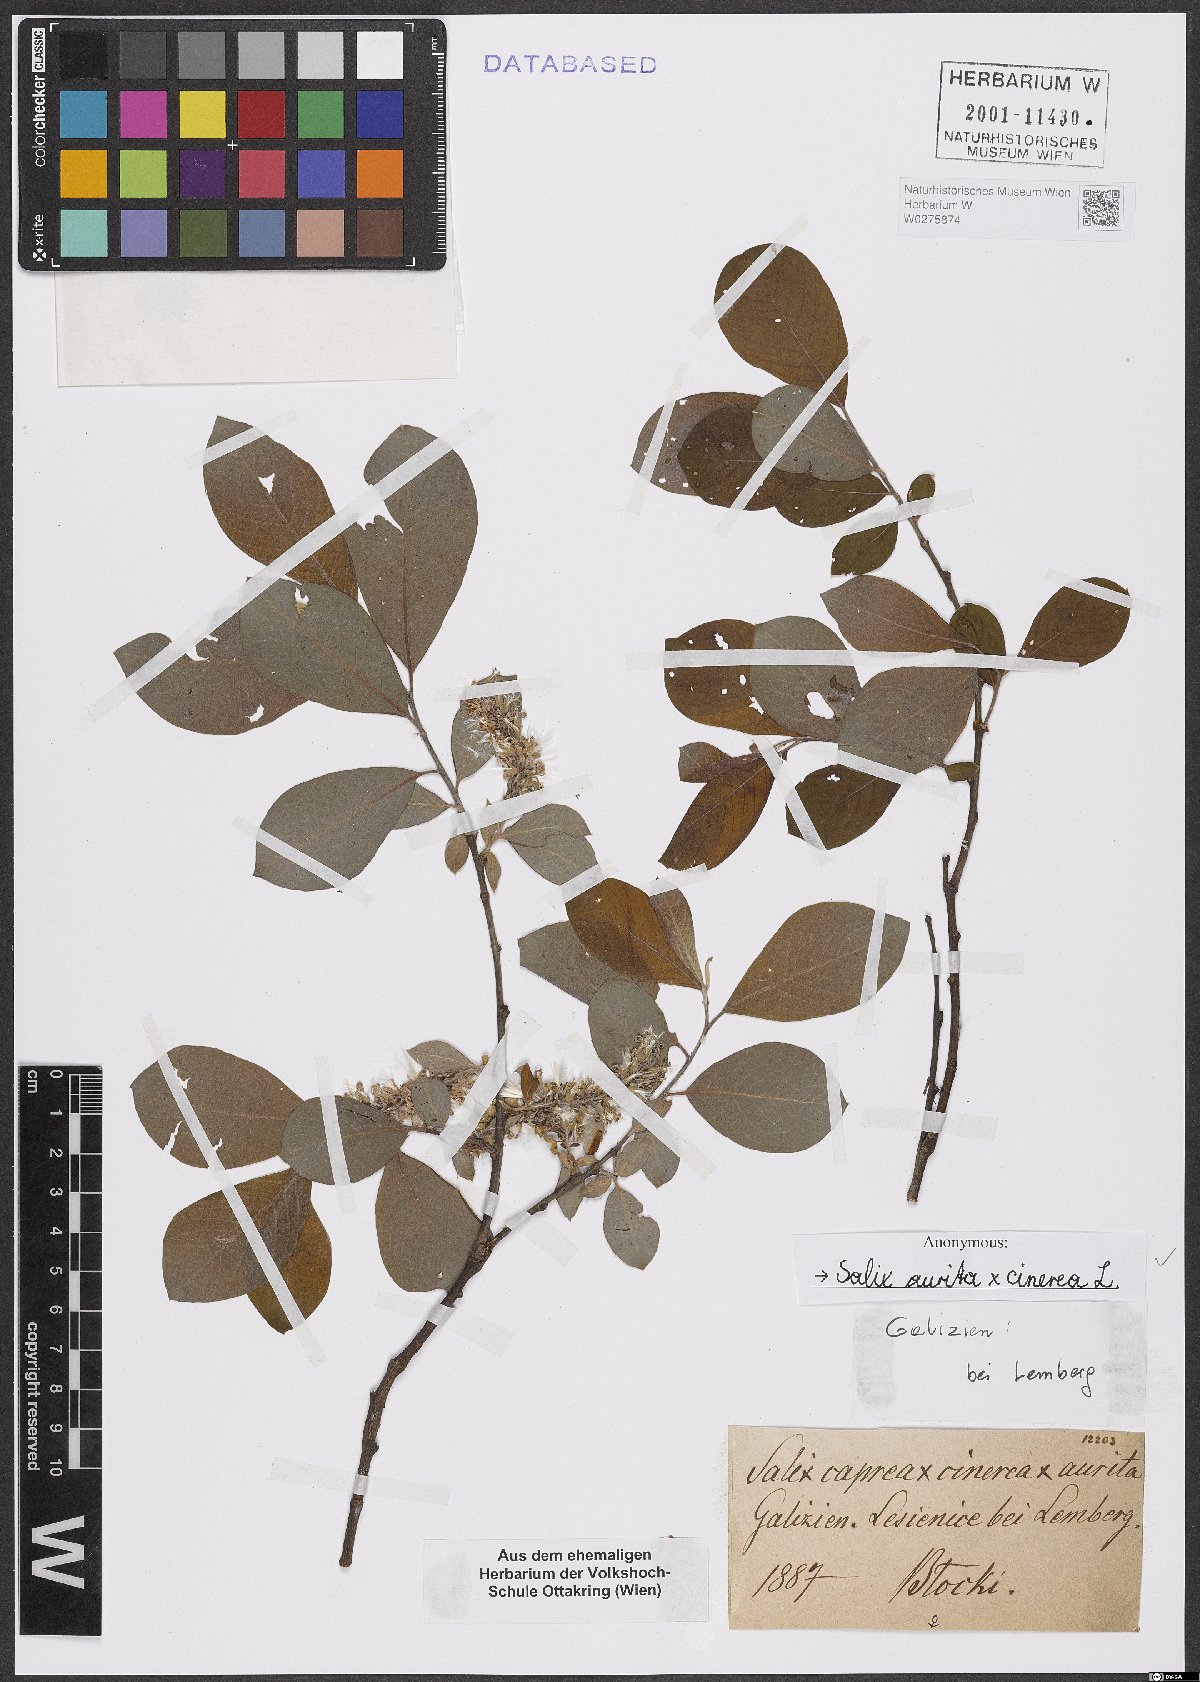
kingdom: Plantae
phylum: Tracheophyta
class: Magnoliopsida
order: Malpighiales
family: Salicaceae
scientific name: Salicaceae
